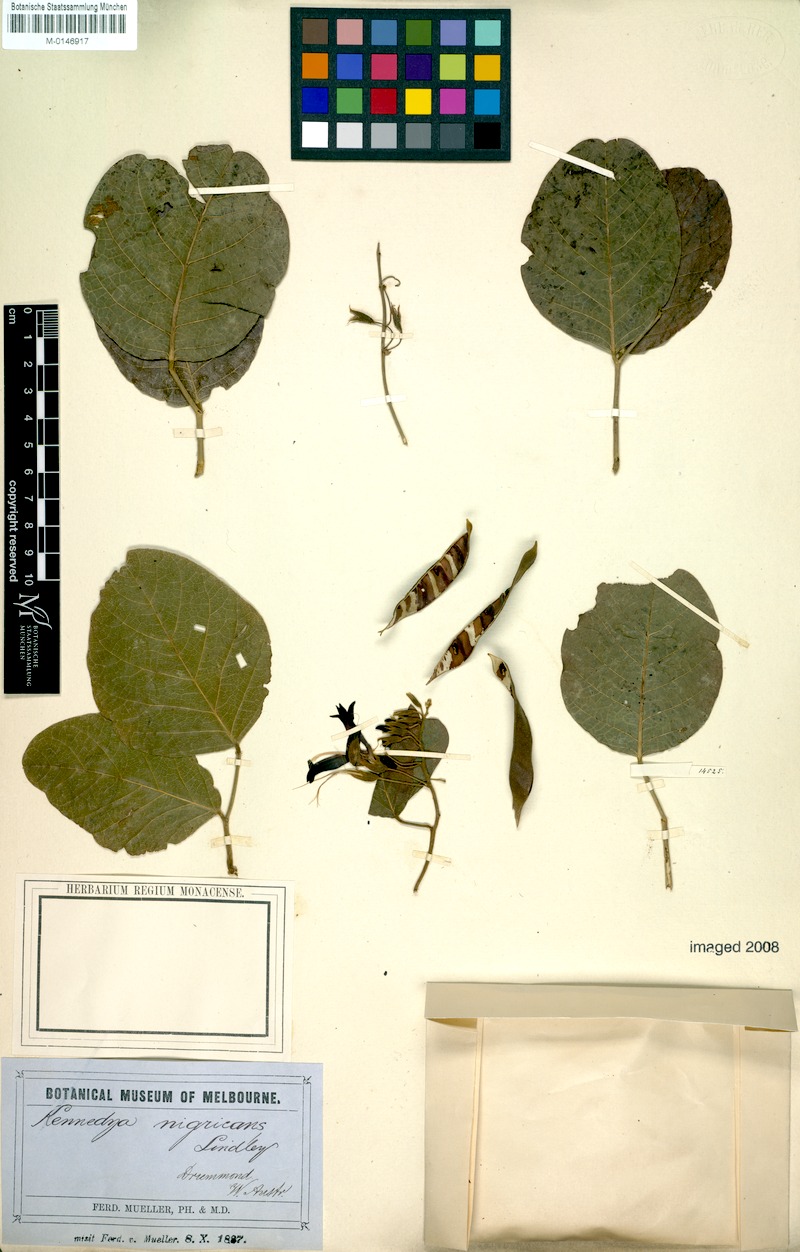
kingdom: Plantae
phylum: Tracheophyta
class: Magnoliopsida
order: Fabales
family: Fabaceae
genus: Kennedia
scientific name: Kennedia nigricans
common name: Black-bean
